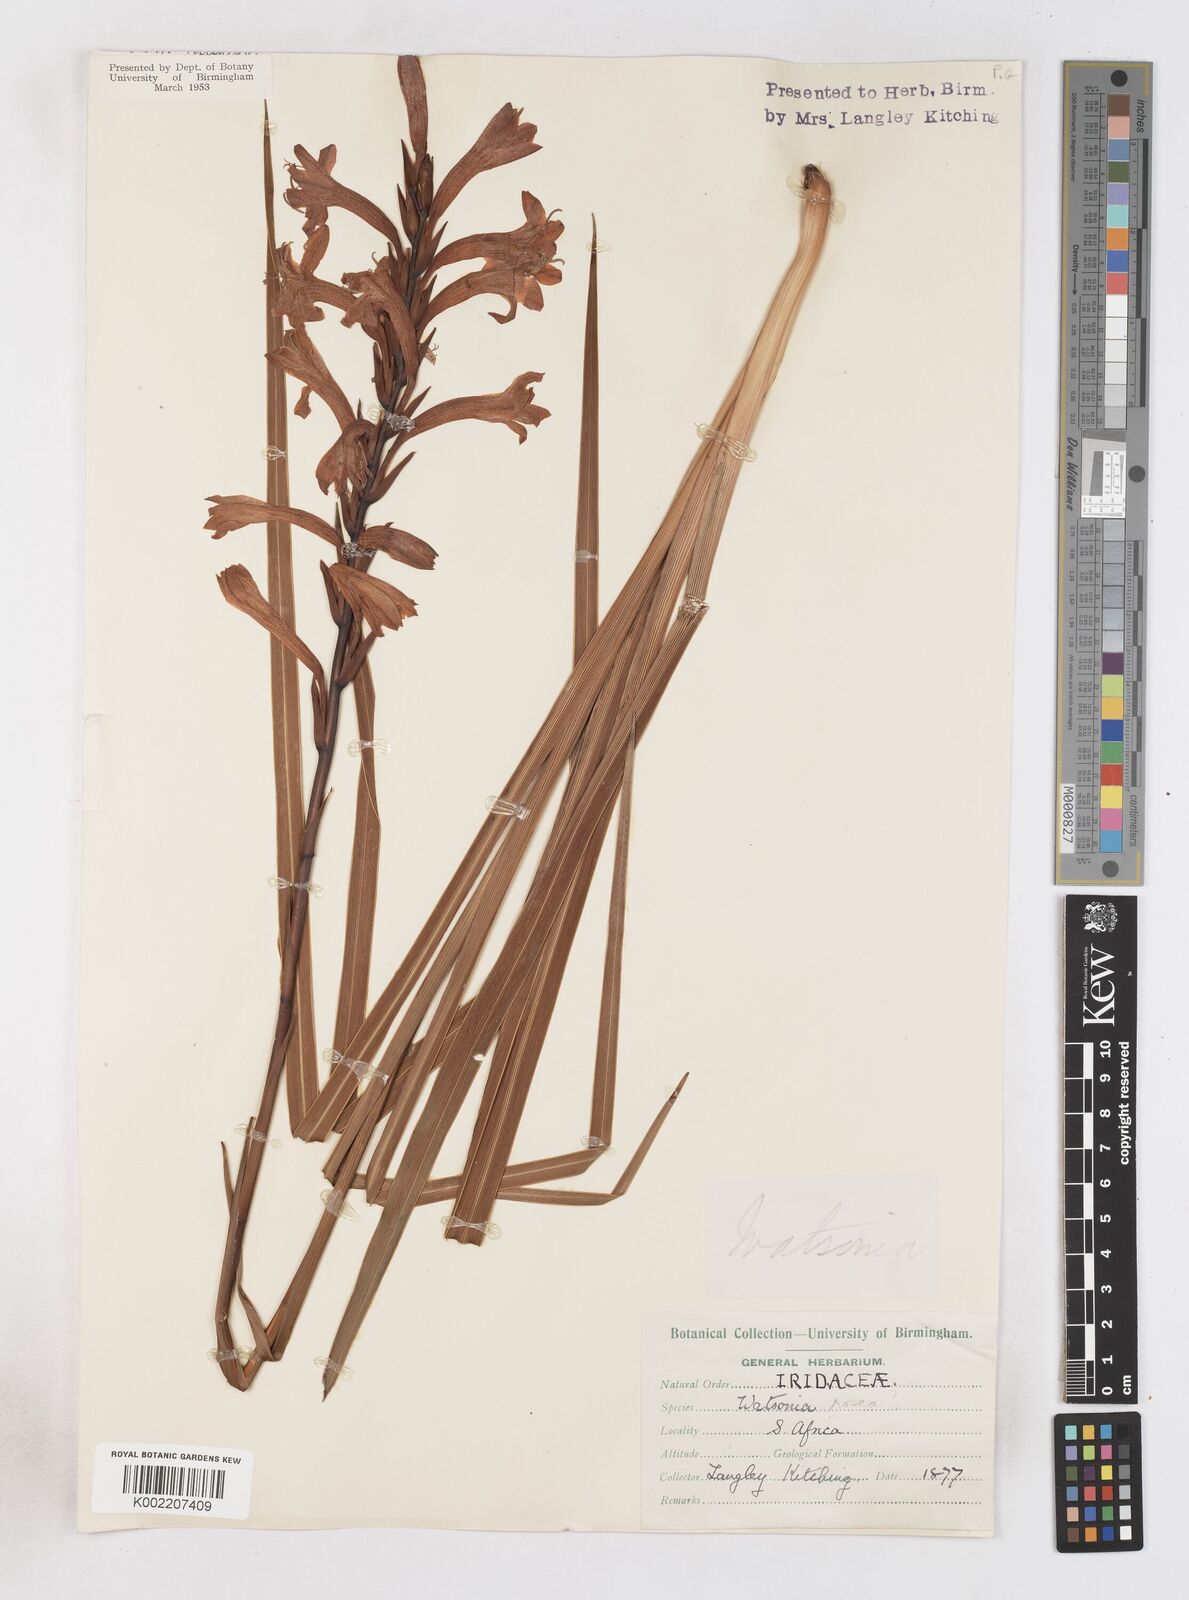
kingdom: Plantae
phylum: Tracheophyta
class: Liliopsida
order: Asparagales
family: Iridaceae
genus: Watsonia
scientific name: Watsonia pillansii
